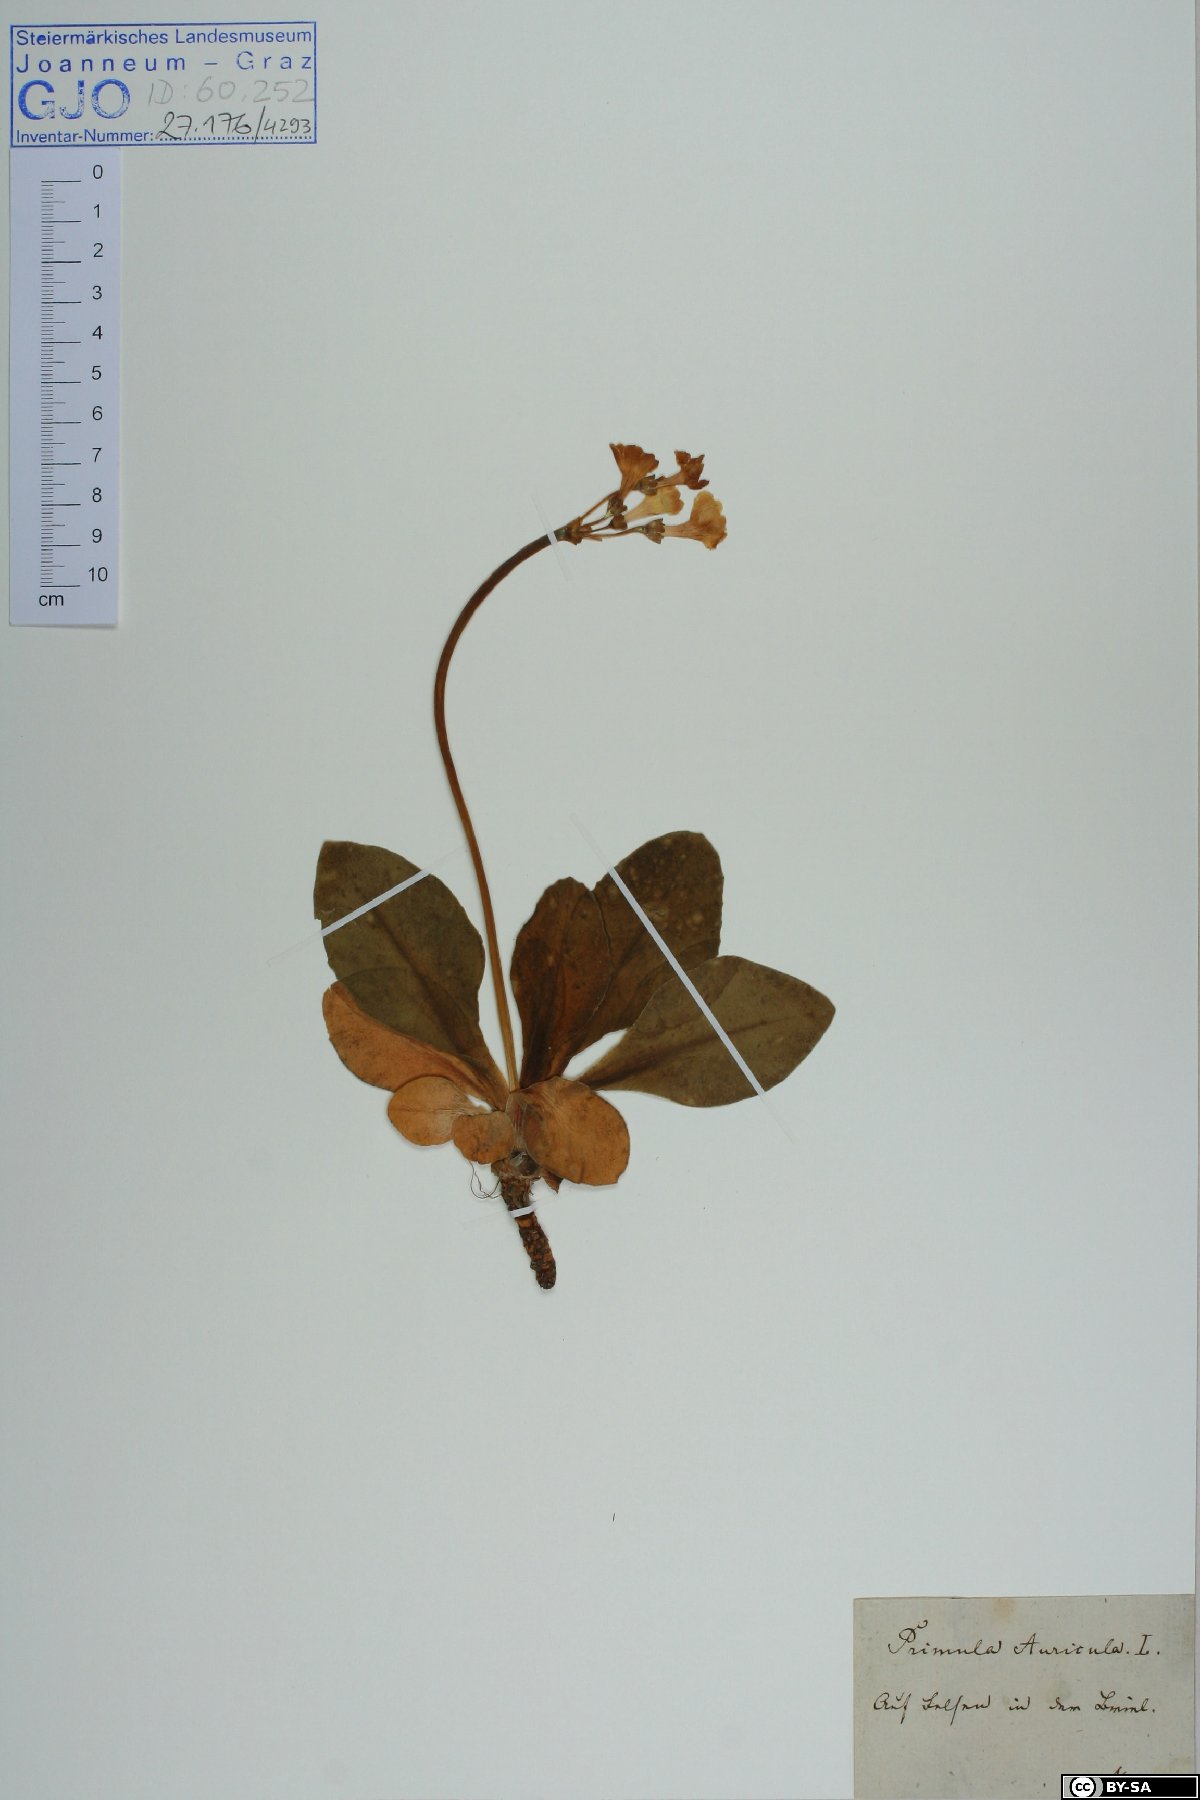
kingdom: Plantae
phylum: Tracheophyta
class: Magnoliopsida
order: Ericales
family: Primulaceae
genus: Primula
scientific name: Primula auricula
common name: Auricula
